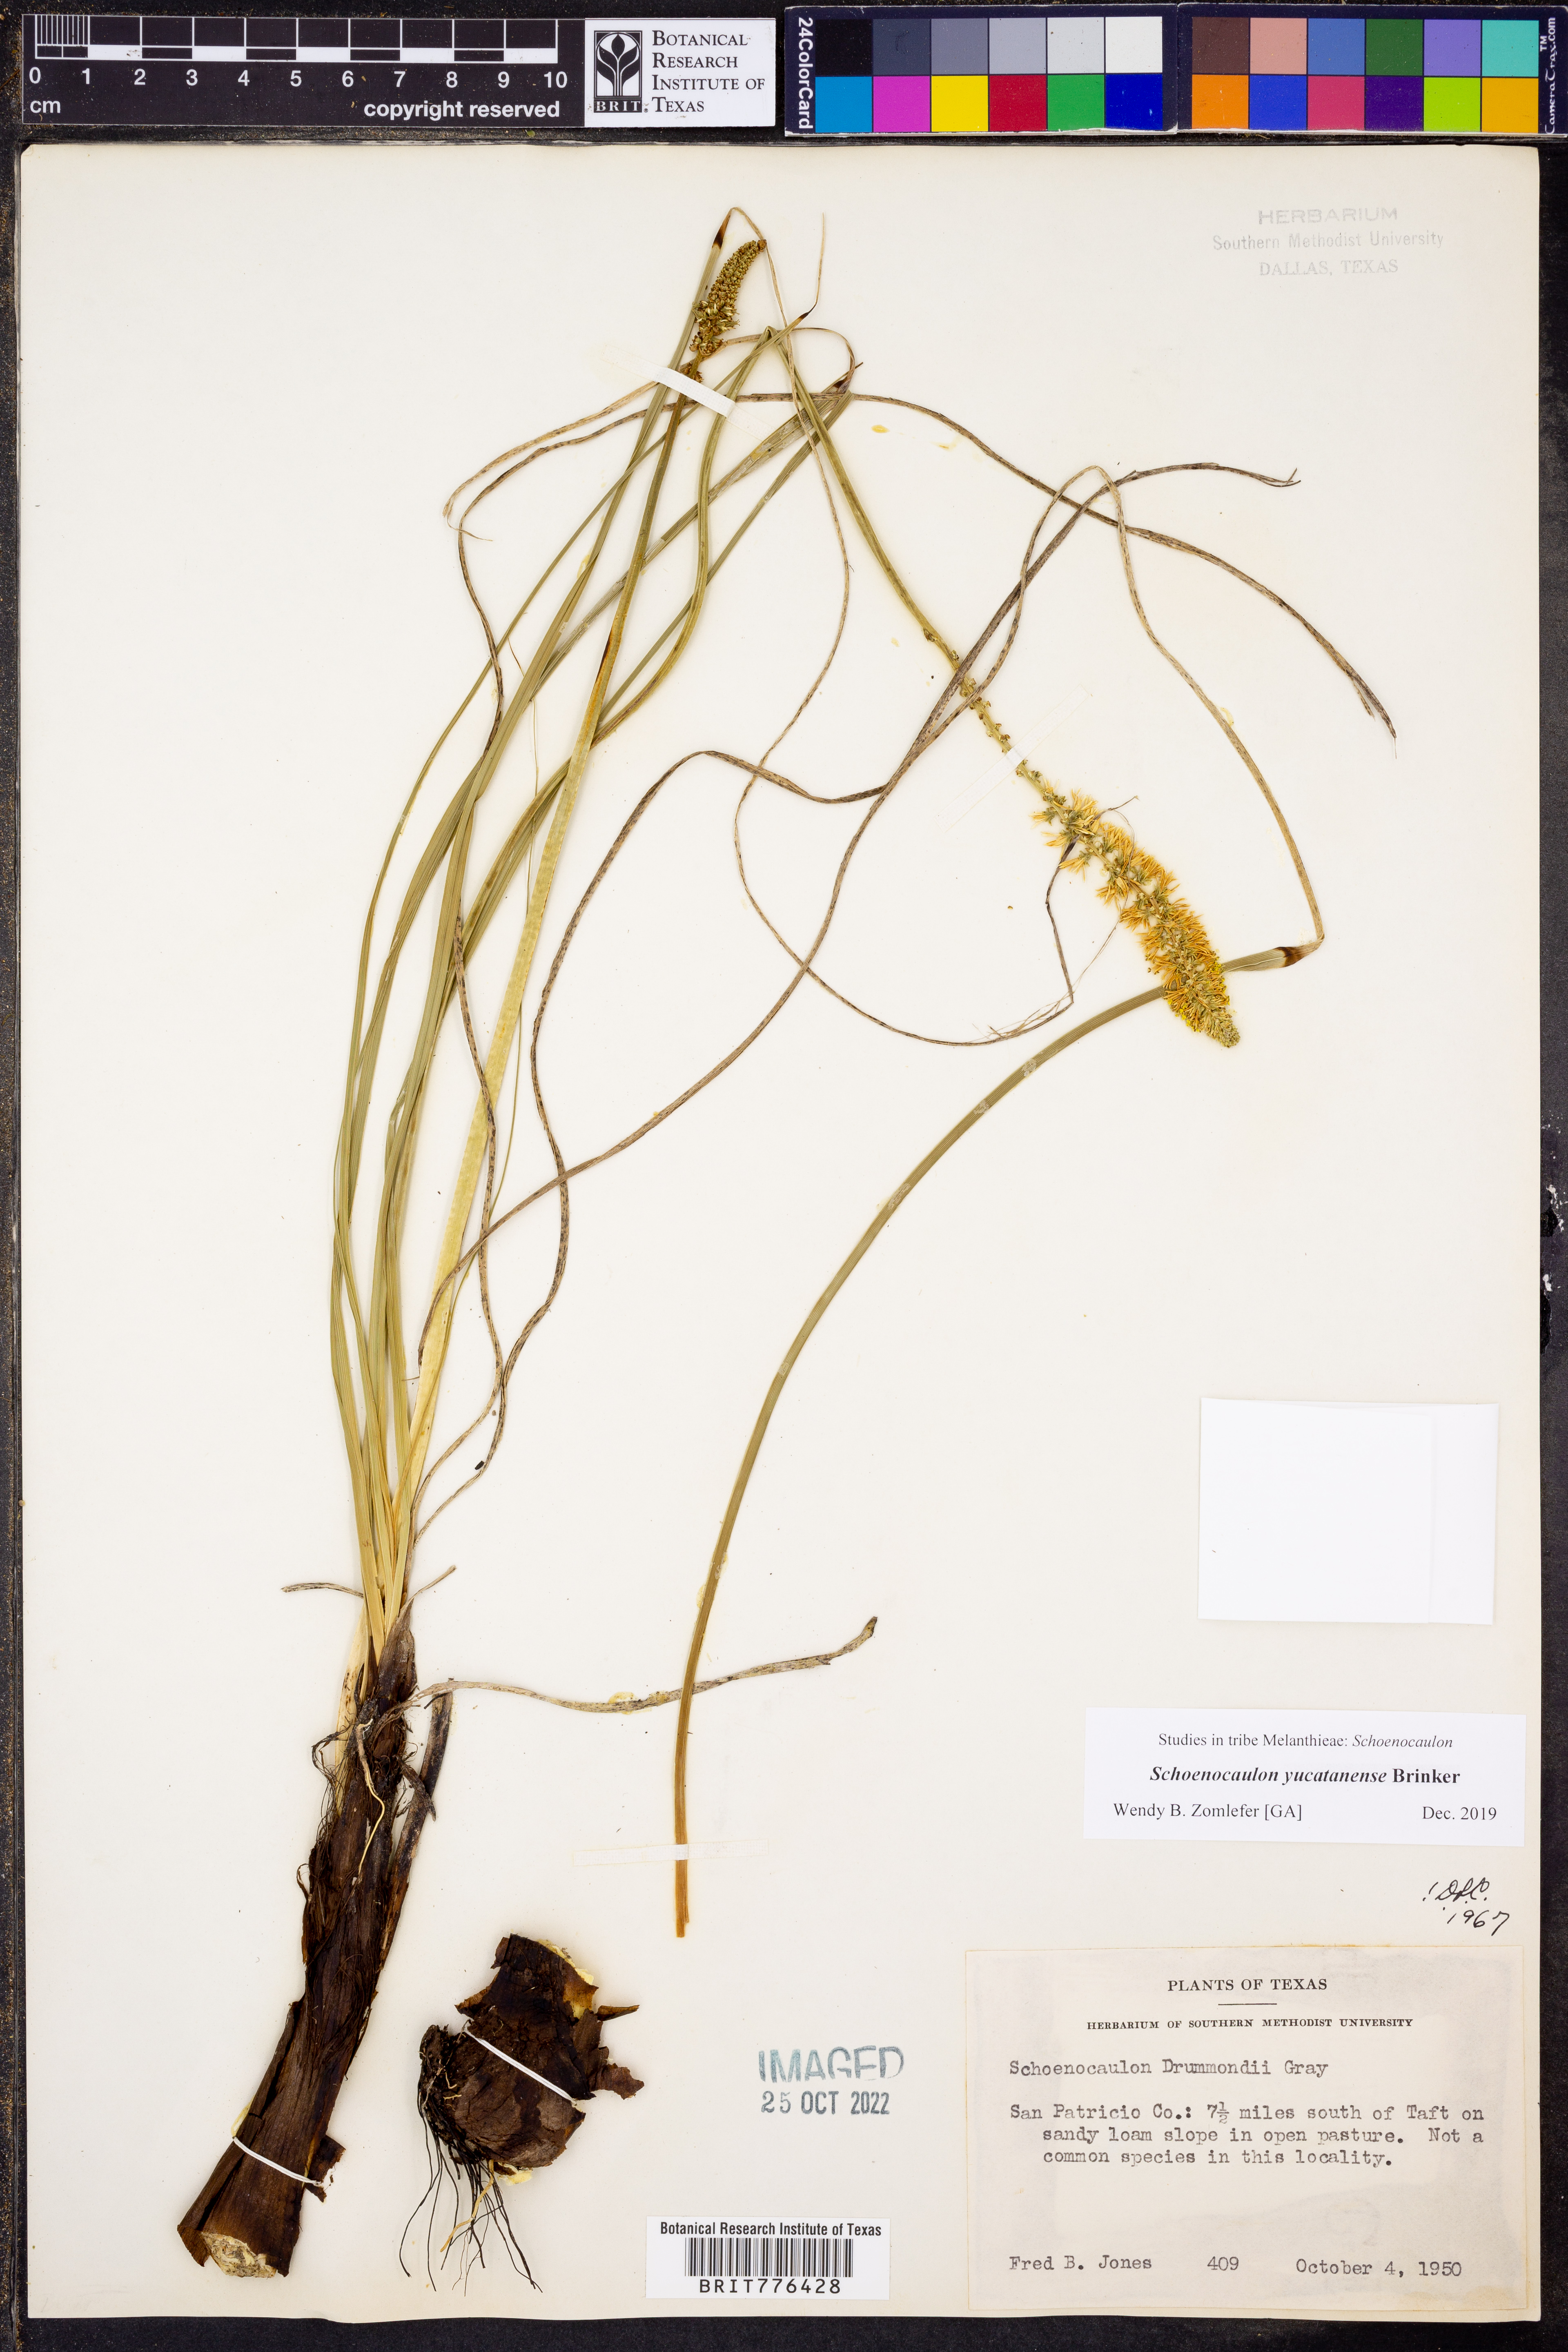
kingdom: Plantae
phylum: Tracheophyta
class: Liliopsida
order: Liliales
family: Melanthiaceae
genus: Schoenocaulon
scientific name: Schoenocaulon ghiesbreghtii
